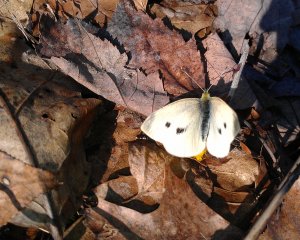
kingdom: Animalia
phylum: Arthropoda
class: Insecta
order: Lepidoptera
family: Pieridae
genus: Pieris
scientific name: Pieris rapae
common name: Cabbage White
